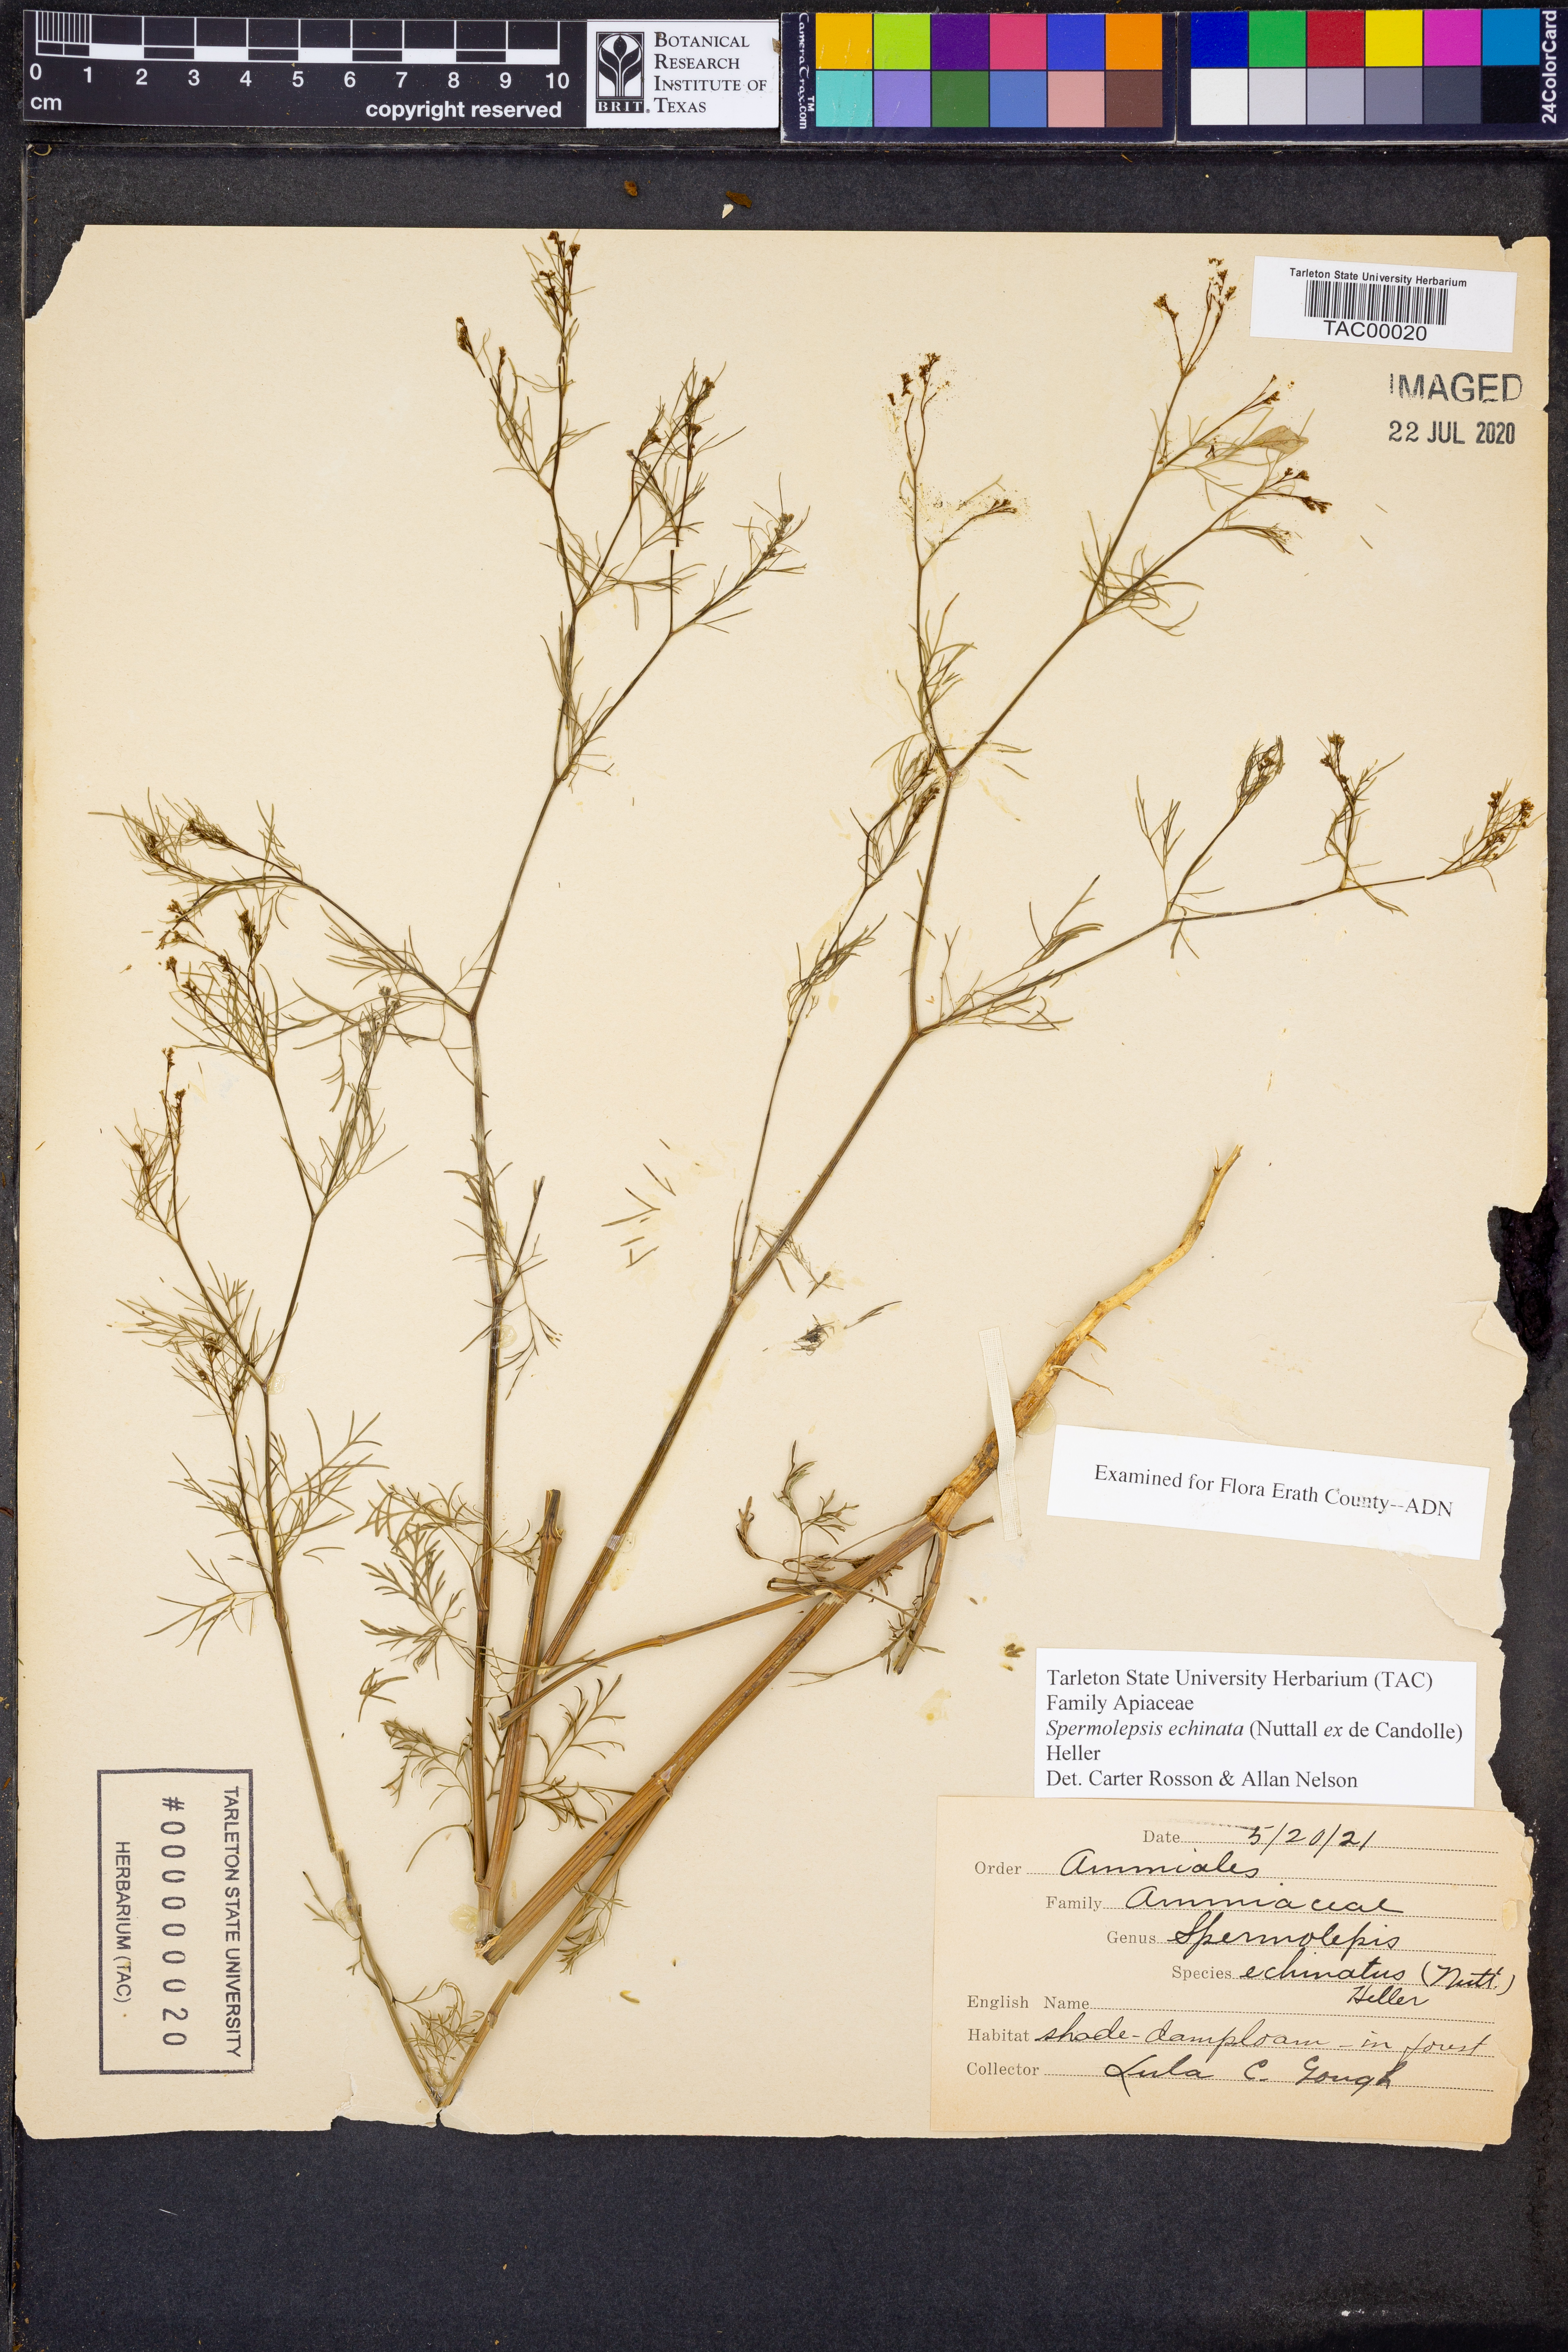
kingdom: Plantae
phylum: Tracheophyta
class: Magnoliopsida
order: Apiales
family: Apiaceae
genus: Spermolepis
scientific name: Spermolepis echinata
